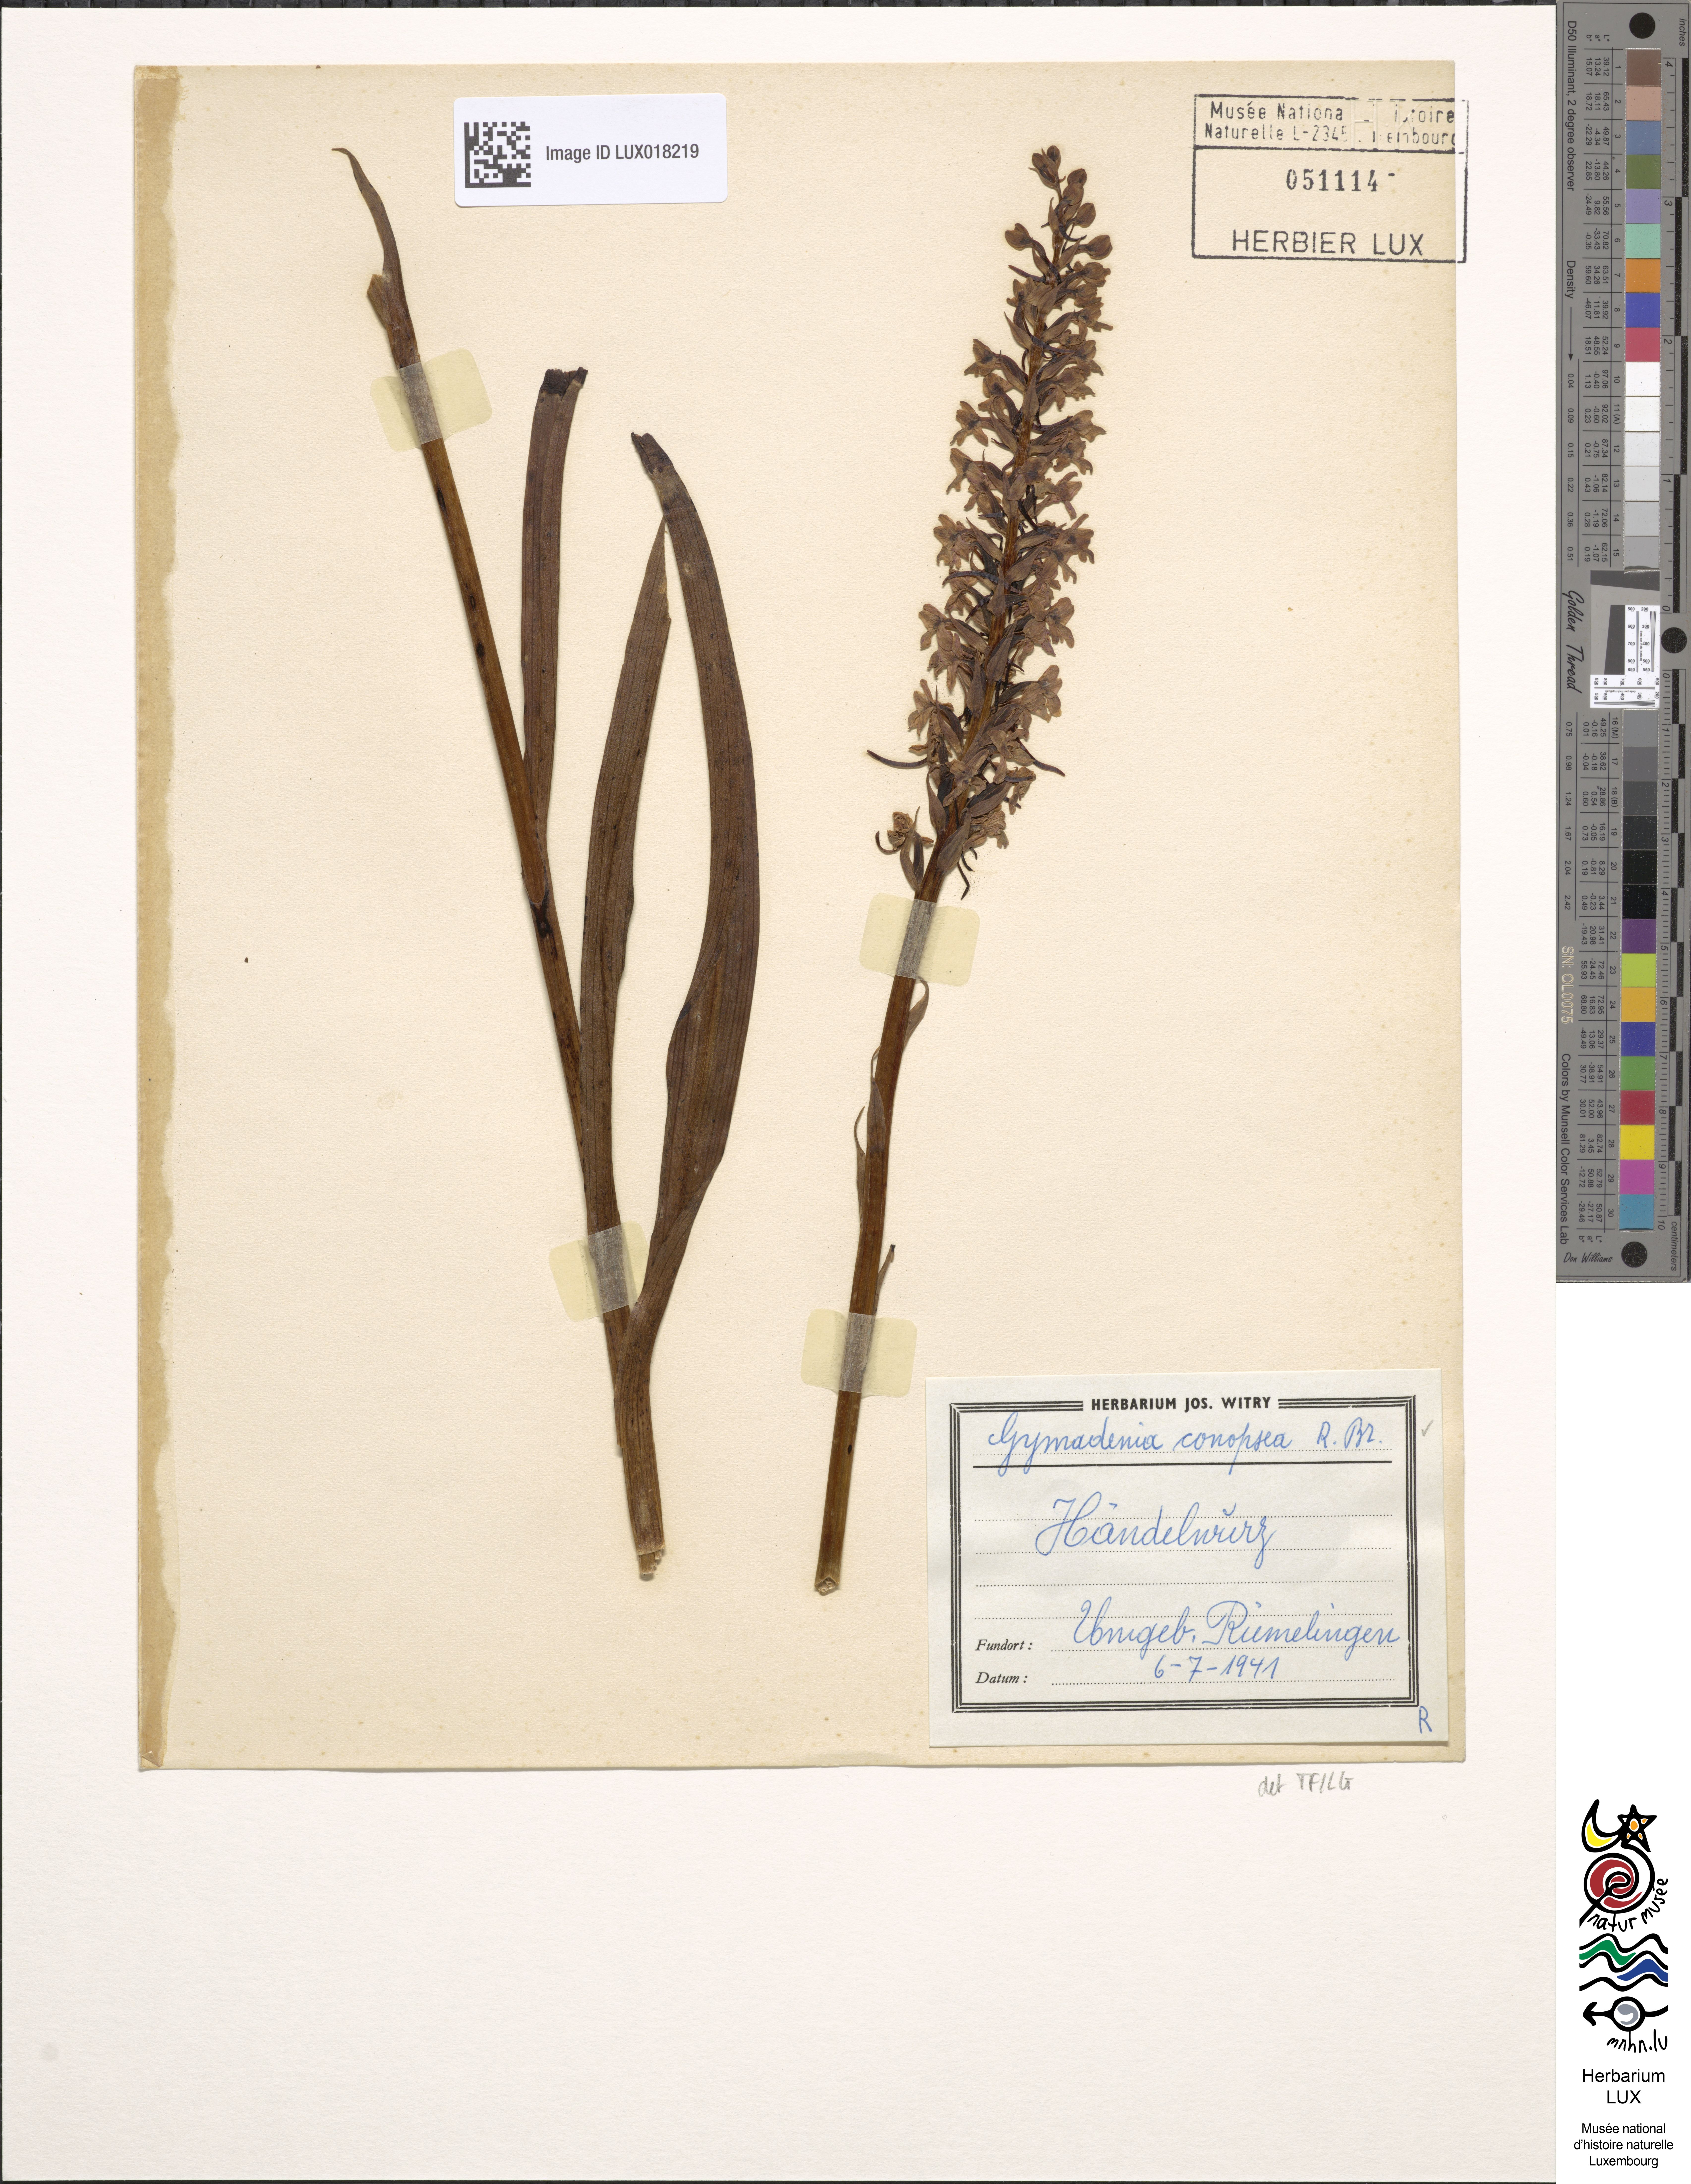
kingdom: Plantae
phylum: Tracheophyta
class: Liliopsida
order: Asparagales
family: Orchidaceae
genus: Gymnadenia
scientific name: Gymnadenia conopsea
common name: Fragrant orchid
